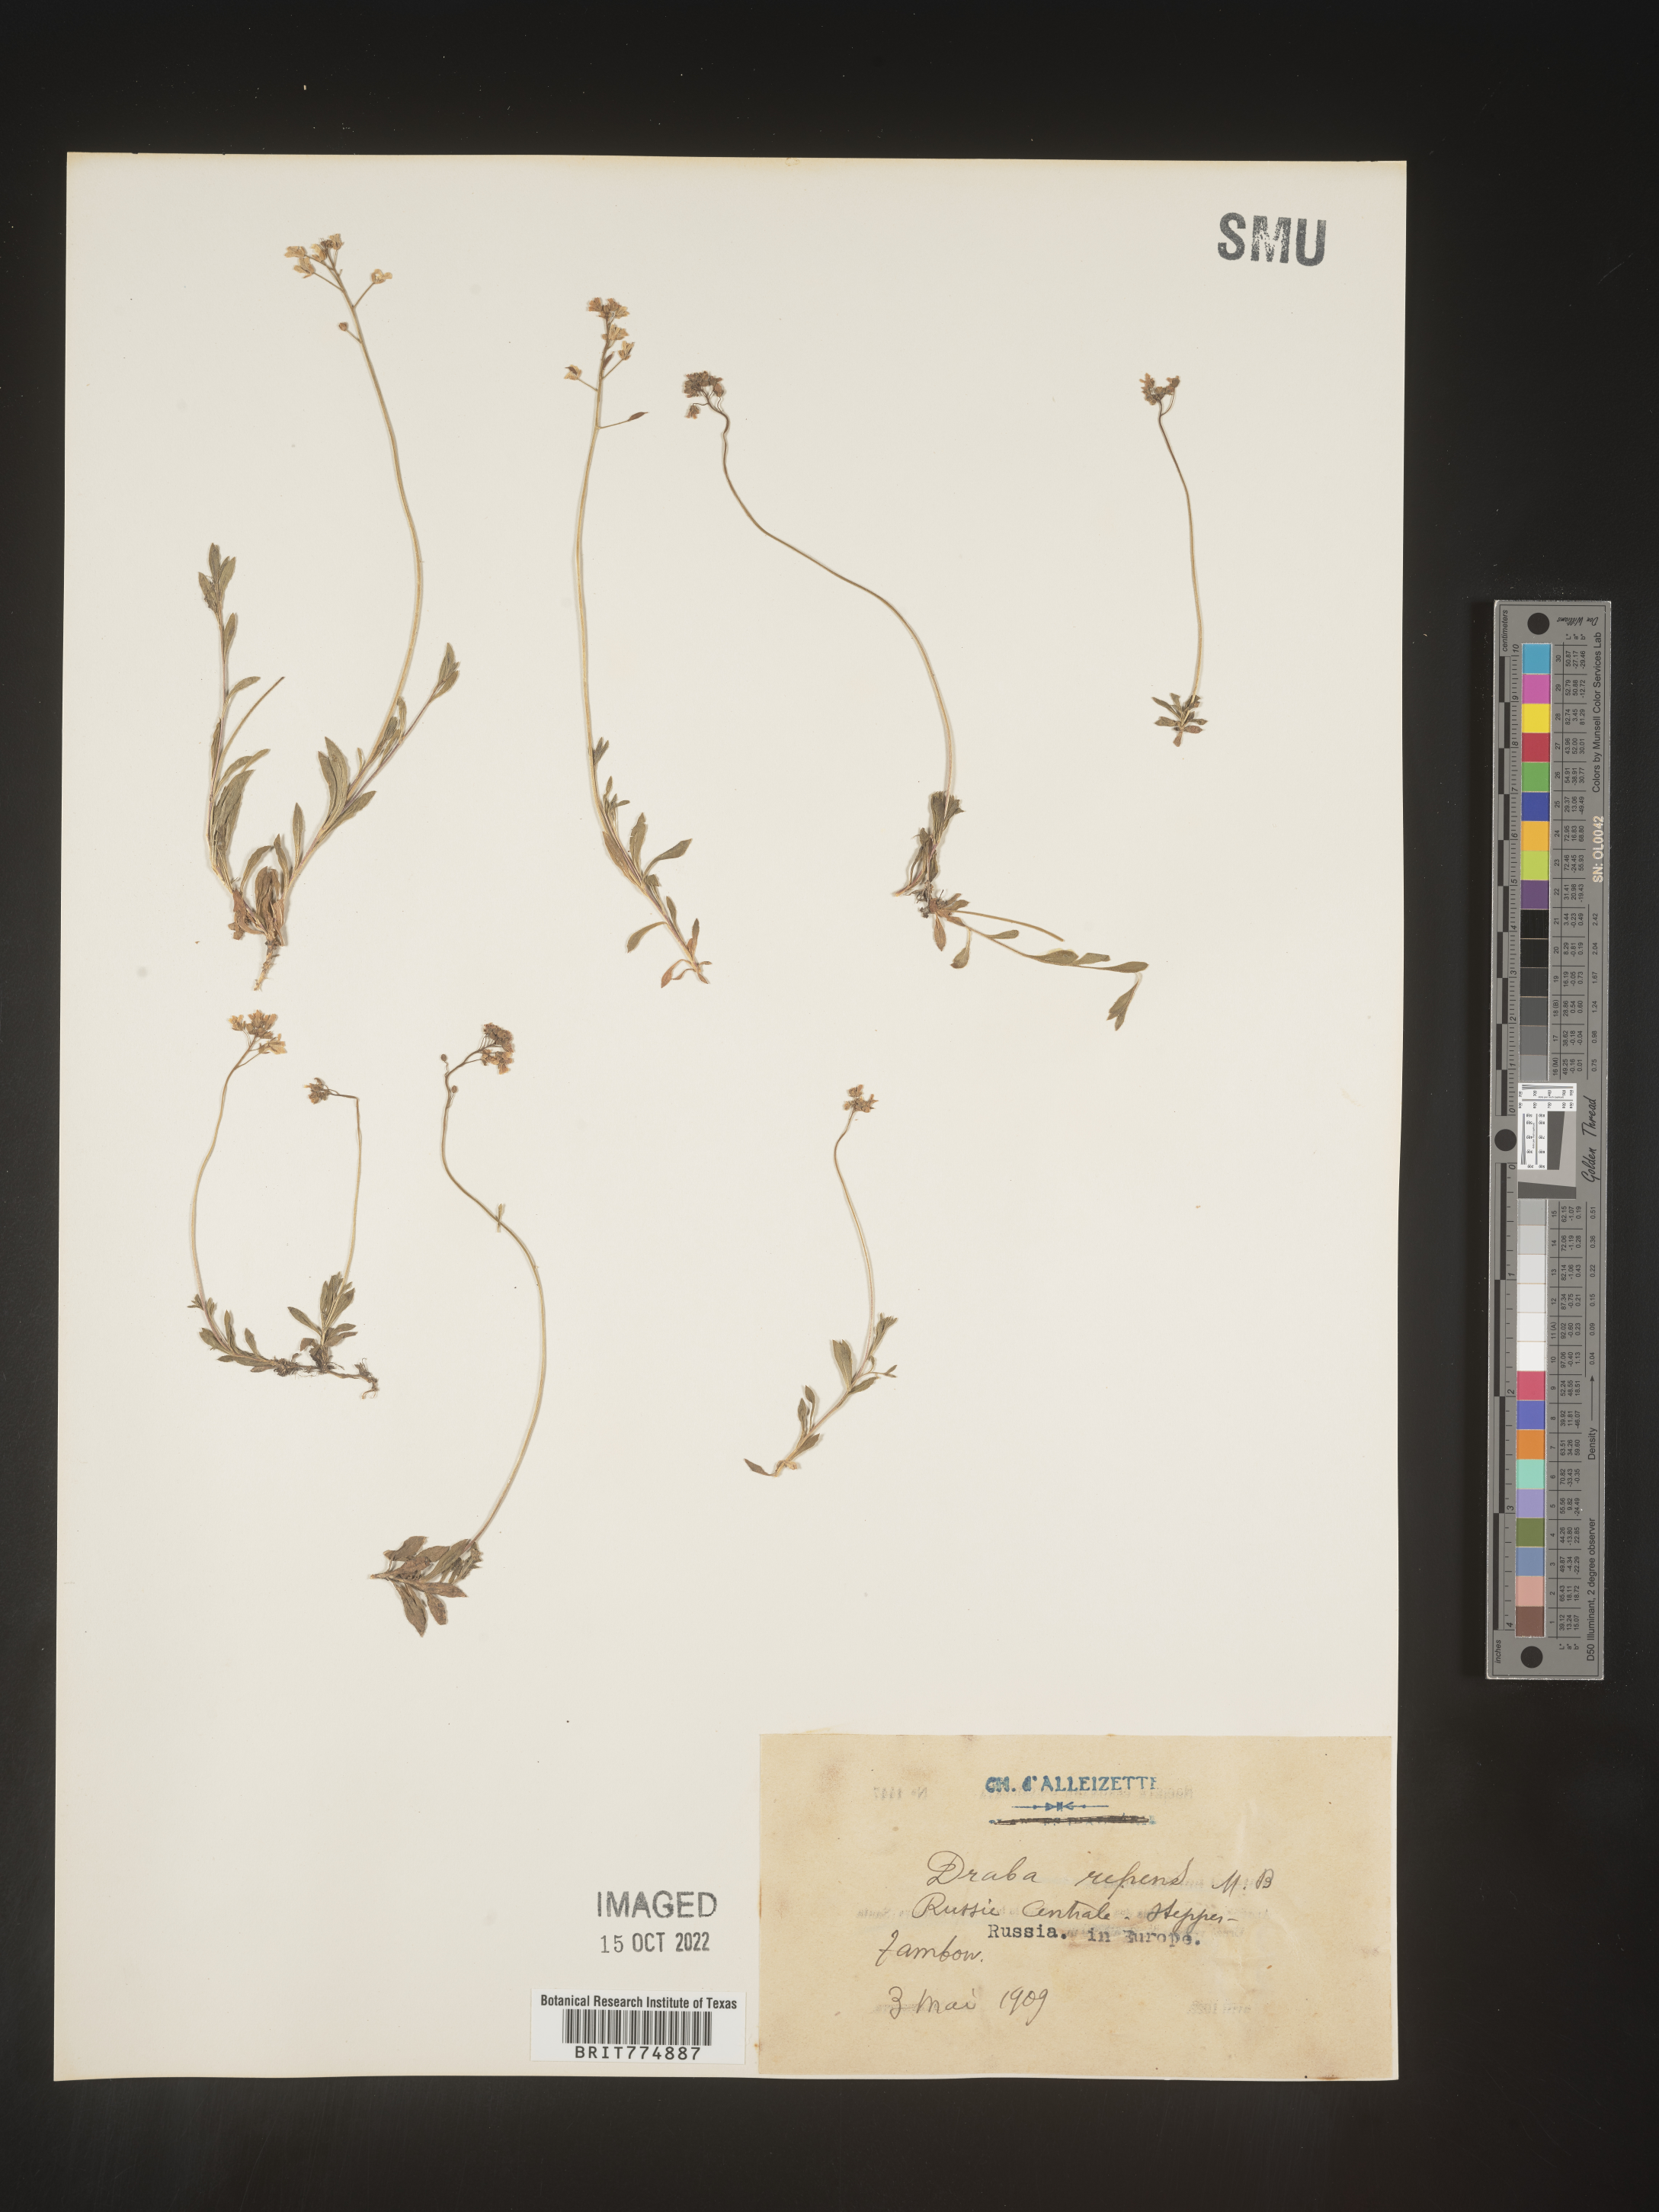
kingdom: Plantae
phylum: Tracheophyta
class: Magnoliopsida
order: Brassicales
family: Brassicaceae
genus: Draba
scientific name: Draba
